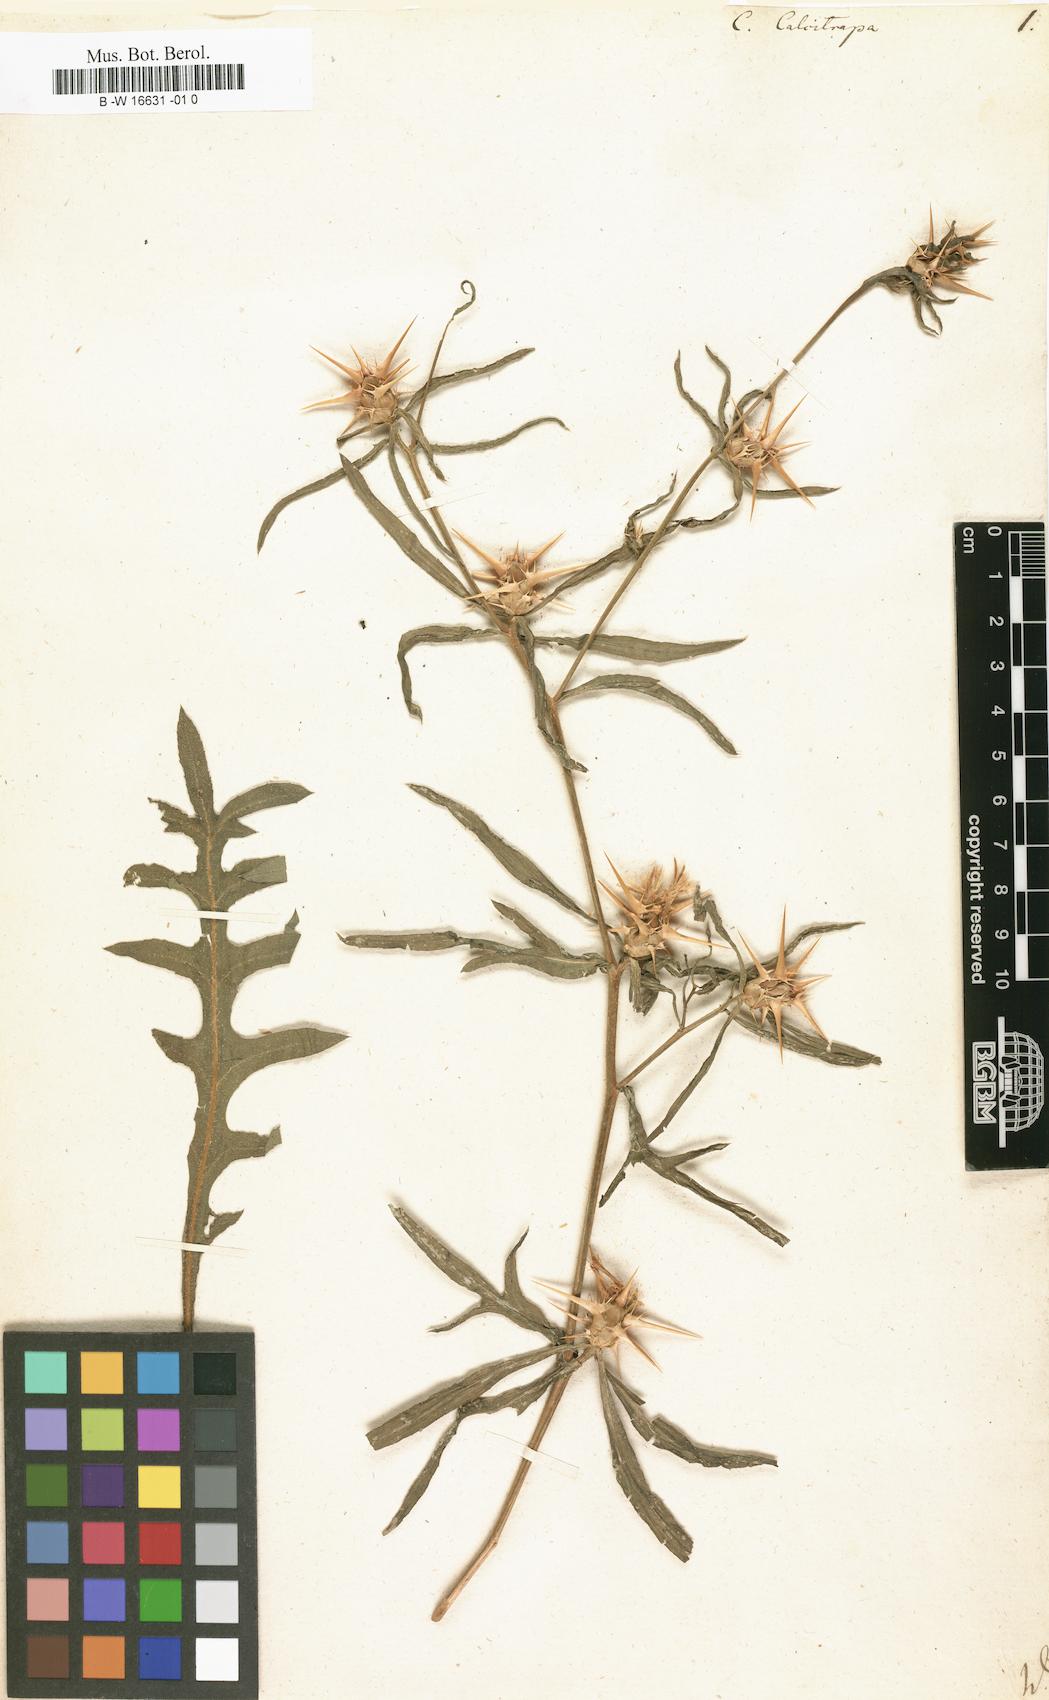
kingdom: Plantae
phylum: Tracheophyta
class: Magnoliopsida
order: Asterales
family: Asteraceae
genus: Centaurea
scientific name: Centaurea calcitrapa
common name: Red star-thistle
